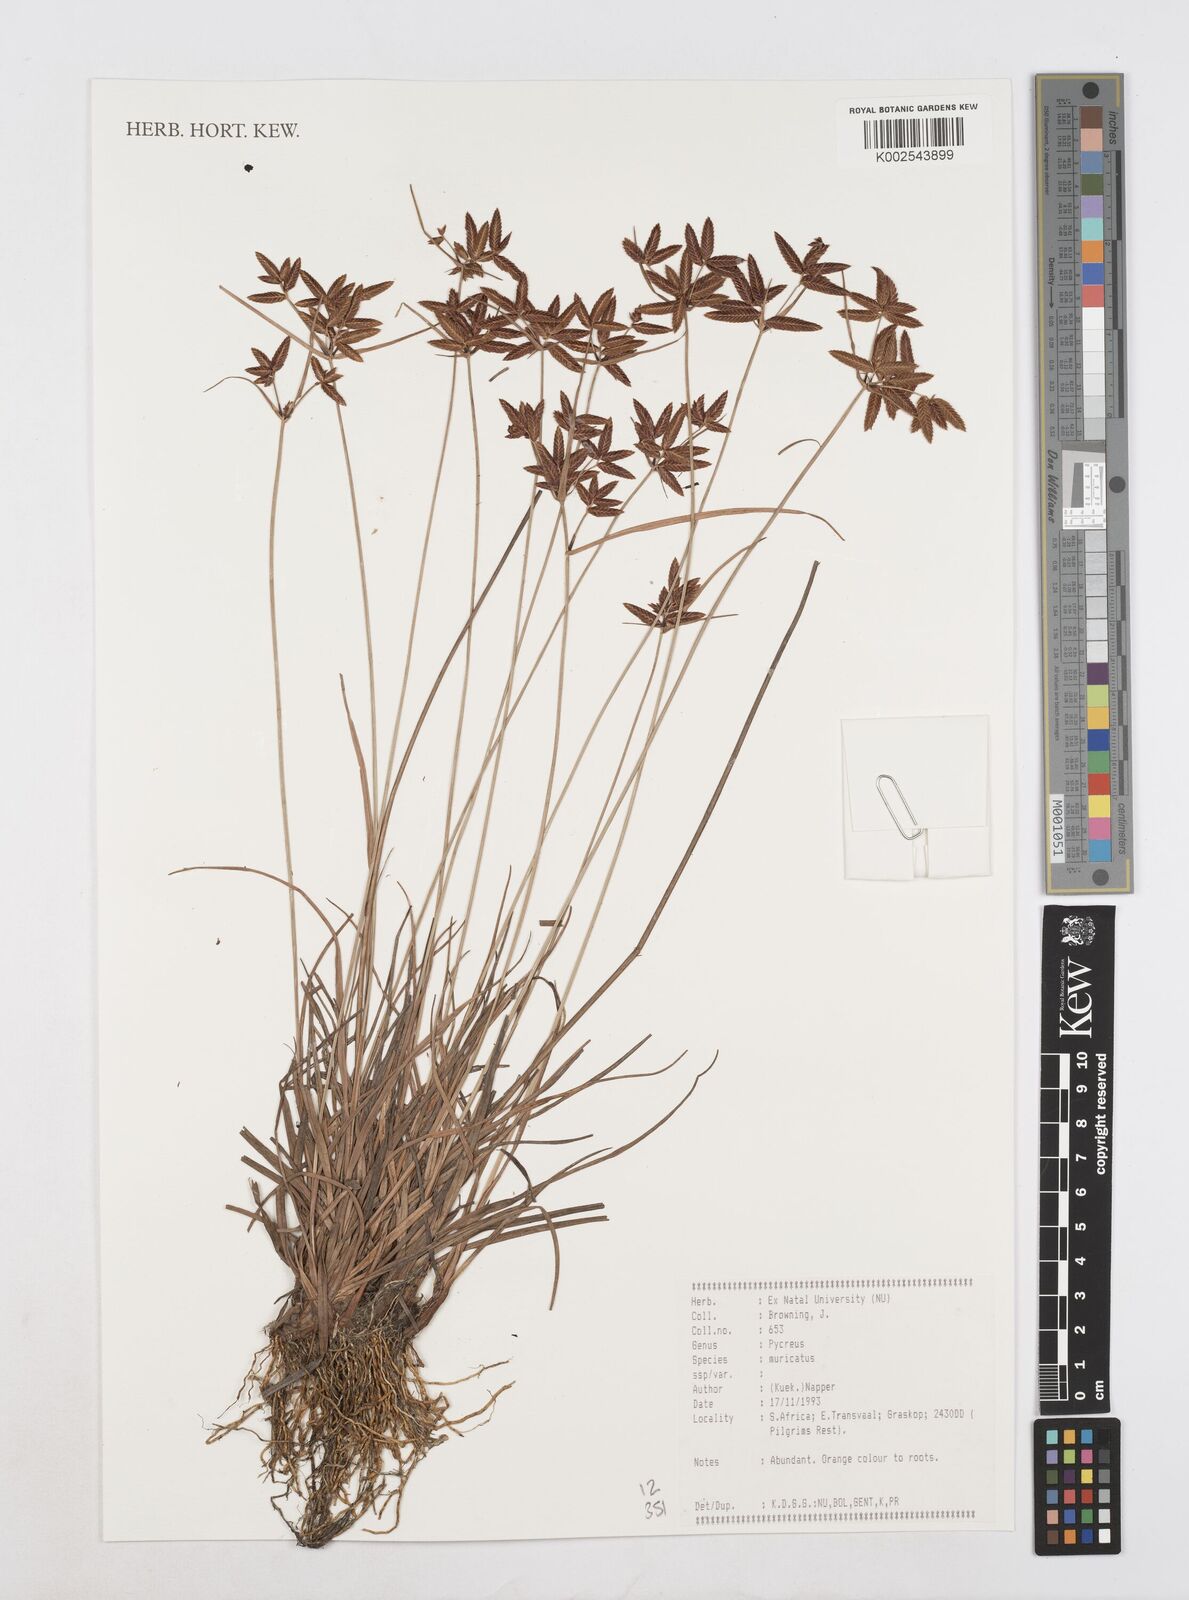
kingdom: Plantae
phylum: Tracheophyta
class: Liliopsida
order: Poales
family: Cyperaceae
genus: Cyperus
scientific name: Cyperus nigricans
